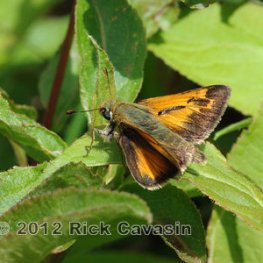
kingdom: Animalia
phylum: Arthropoda
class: Insecta
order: Lepidoptera
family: Hesperiidae
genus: Hesperia
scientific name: Hesperia sassacus
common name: Sassacus Skipper
